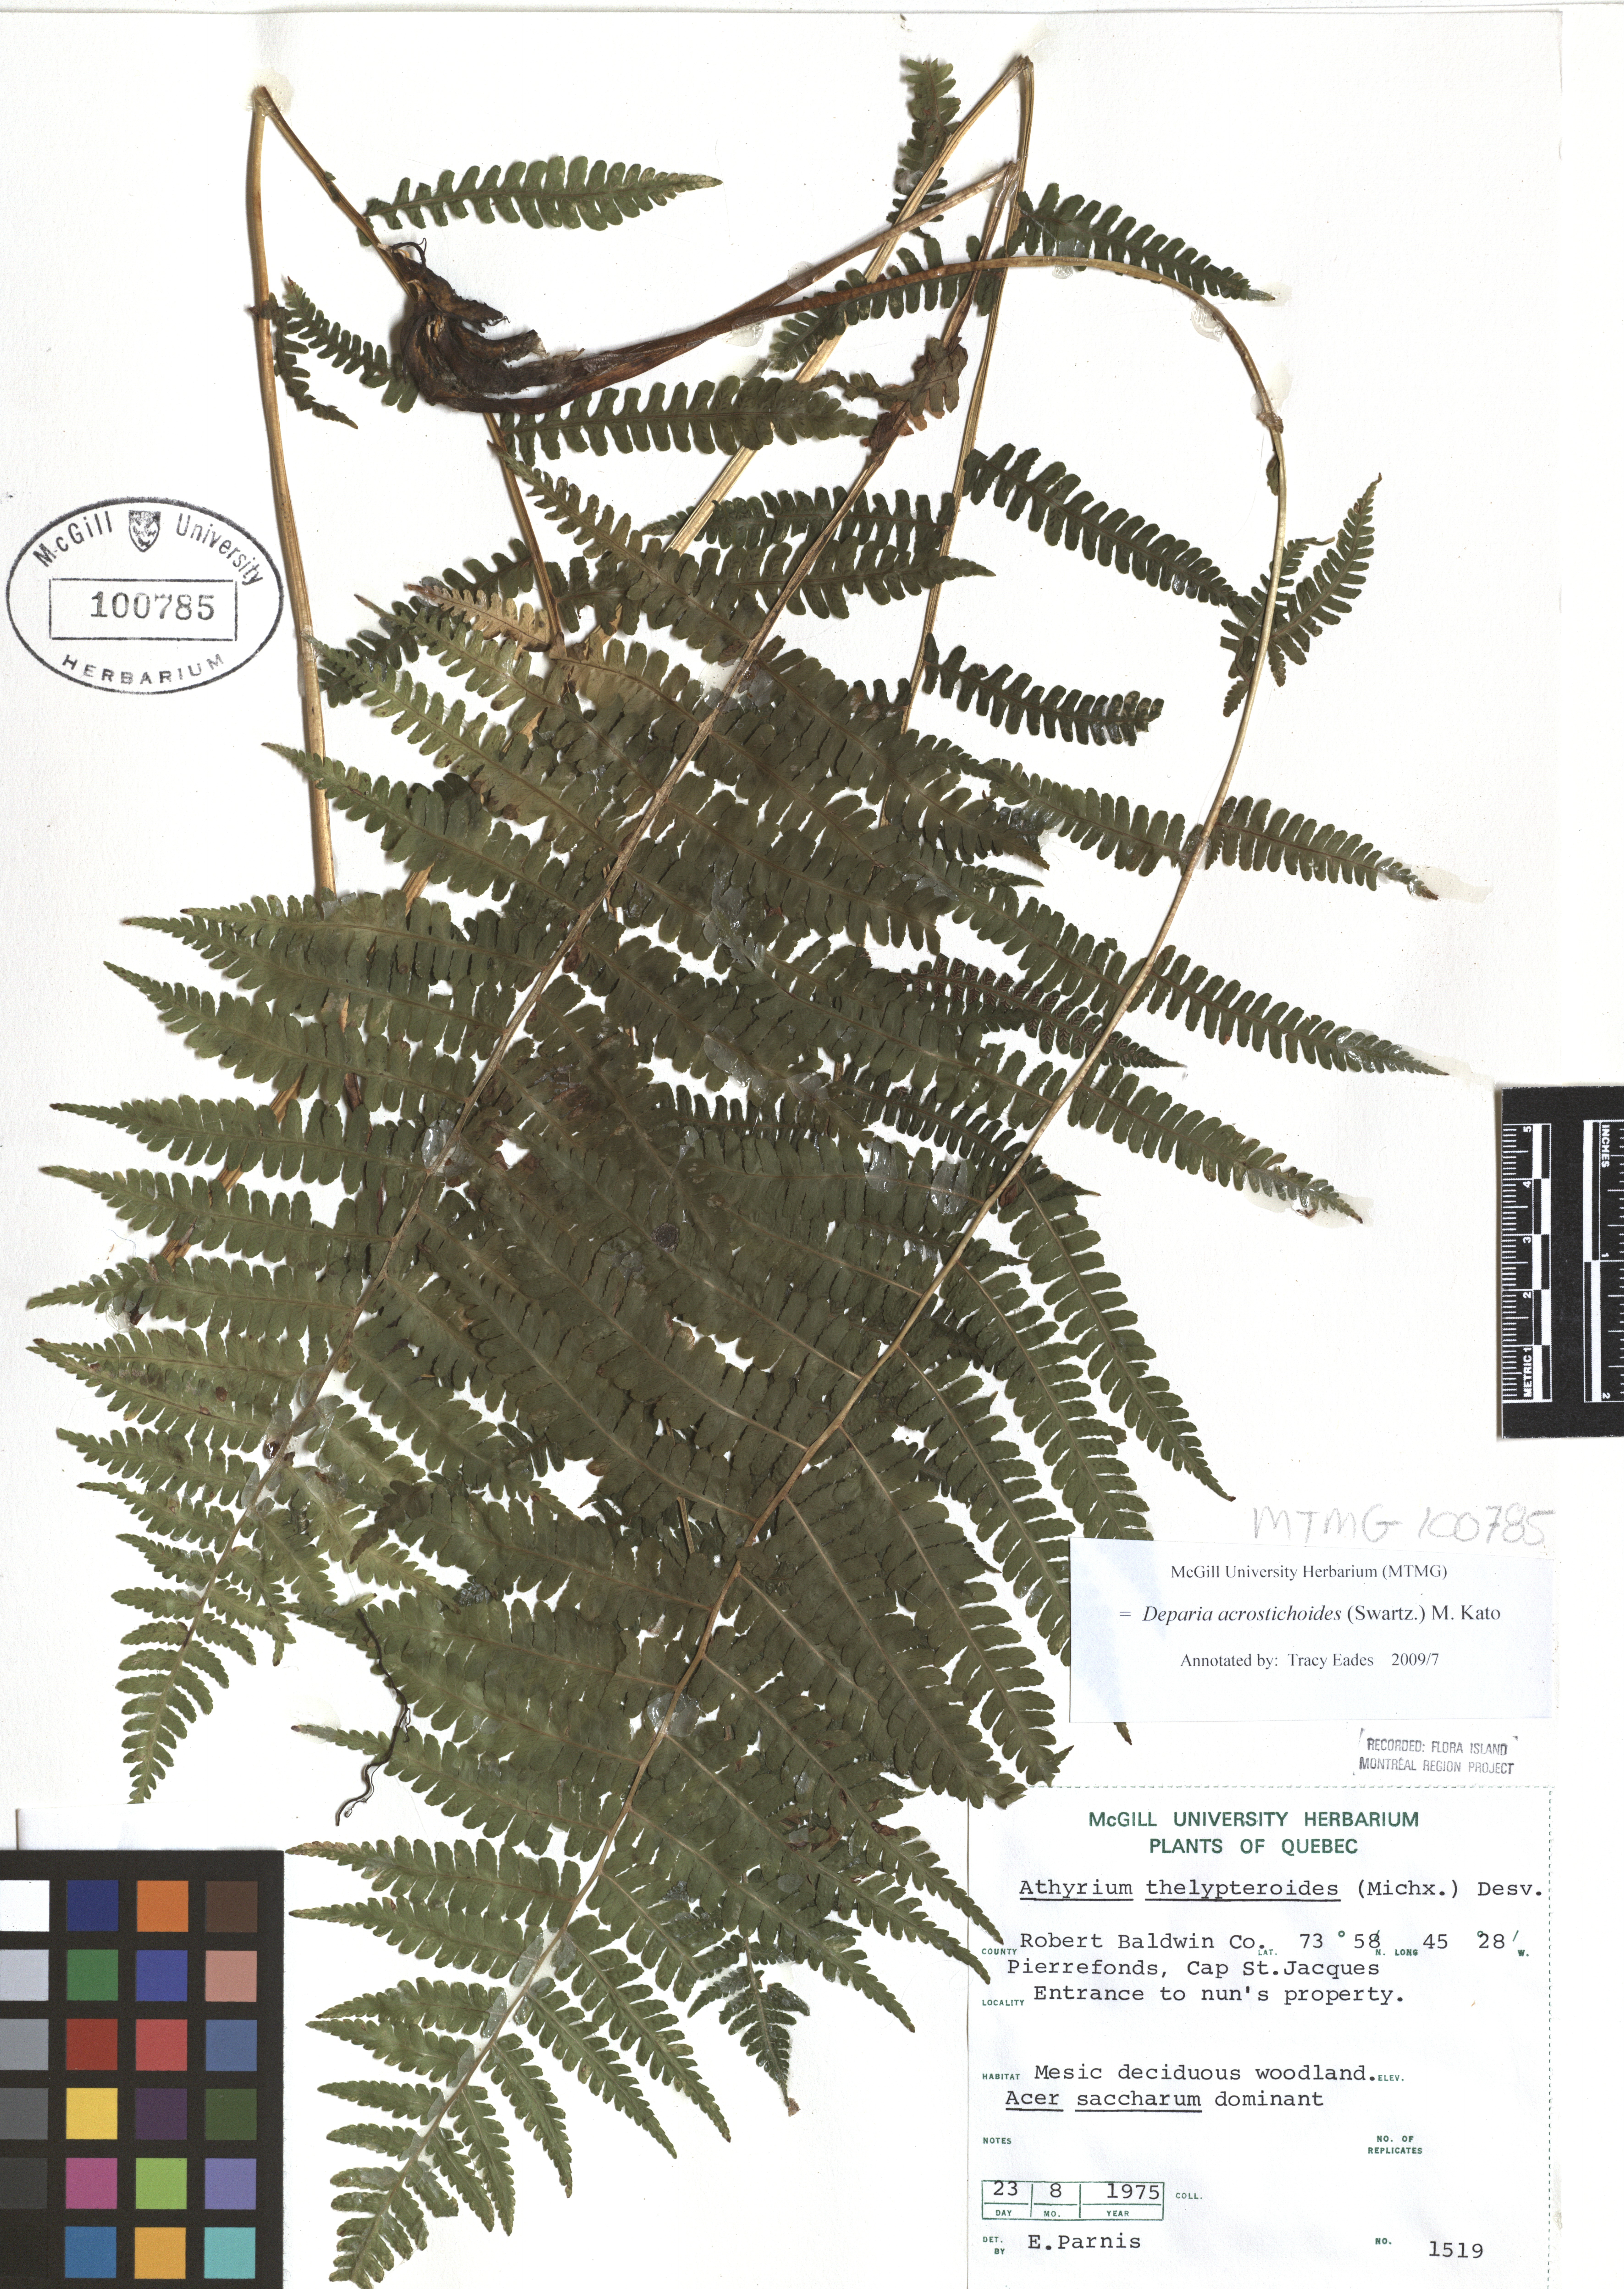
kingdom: Plantae
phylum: Tracheophyta
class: Polypodiopsida
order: Polypodiales
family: Athyriaceae
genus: Deparia
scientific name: Deparia acrostichoides
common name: Silver false spleenwort
